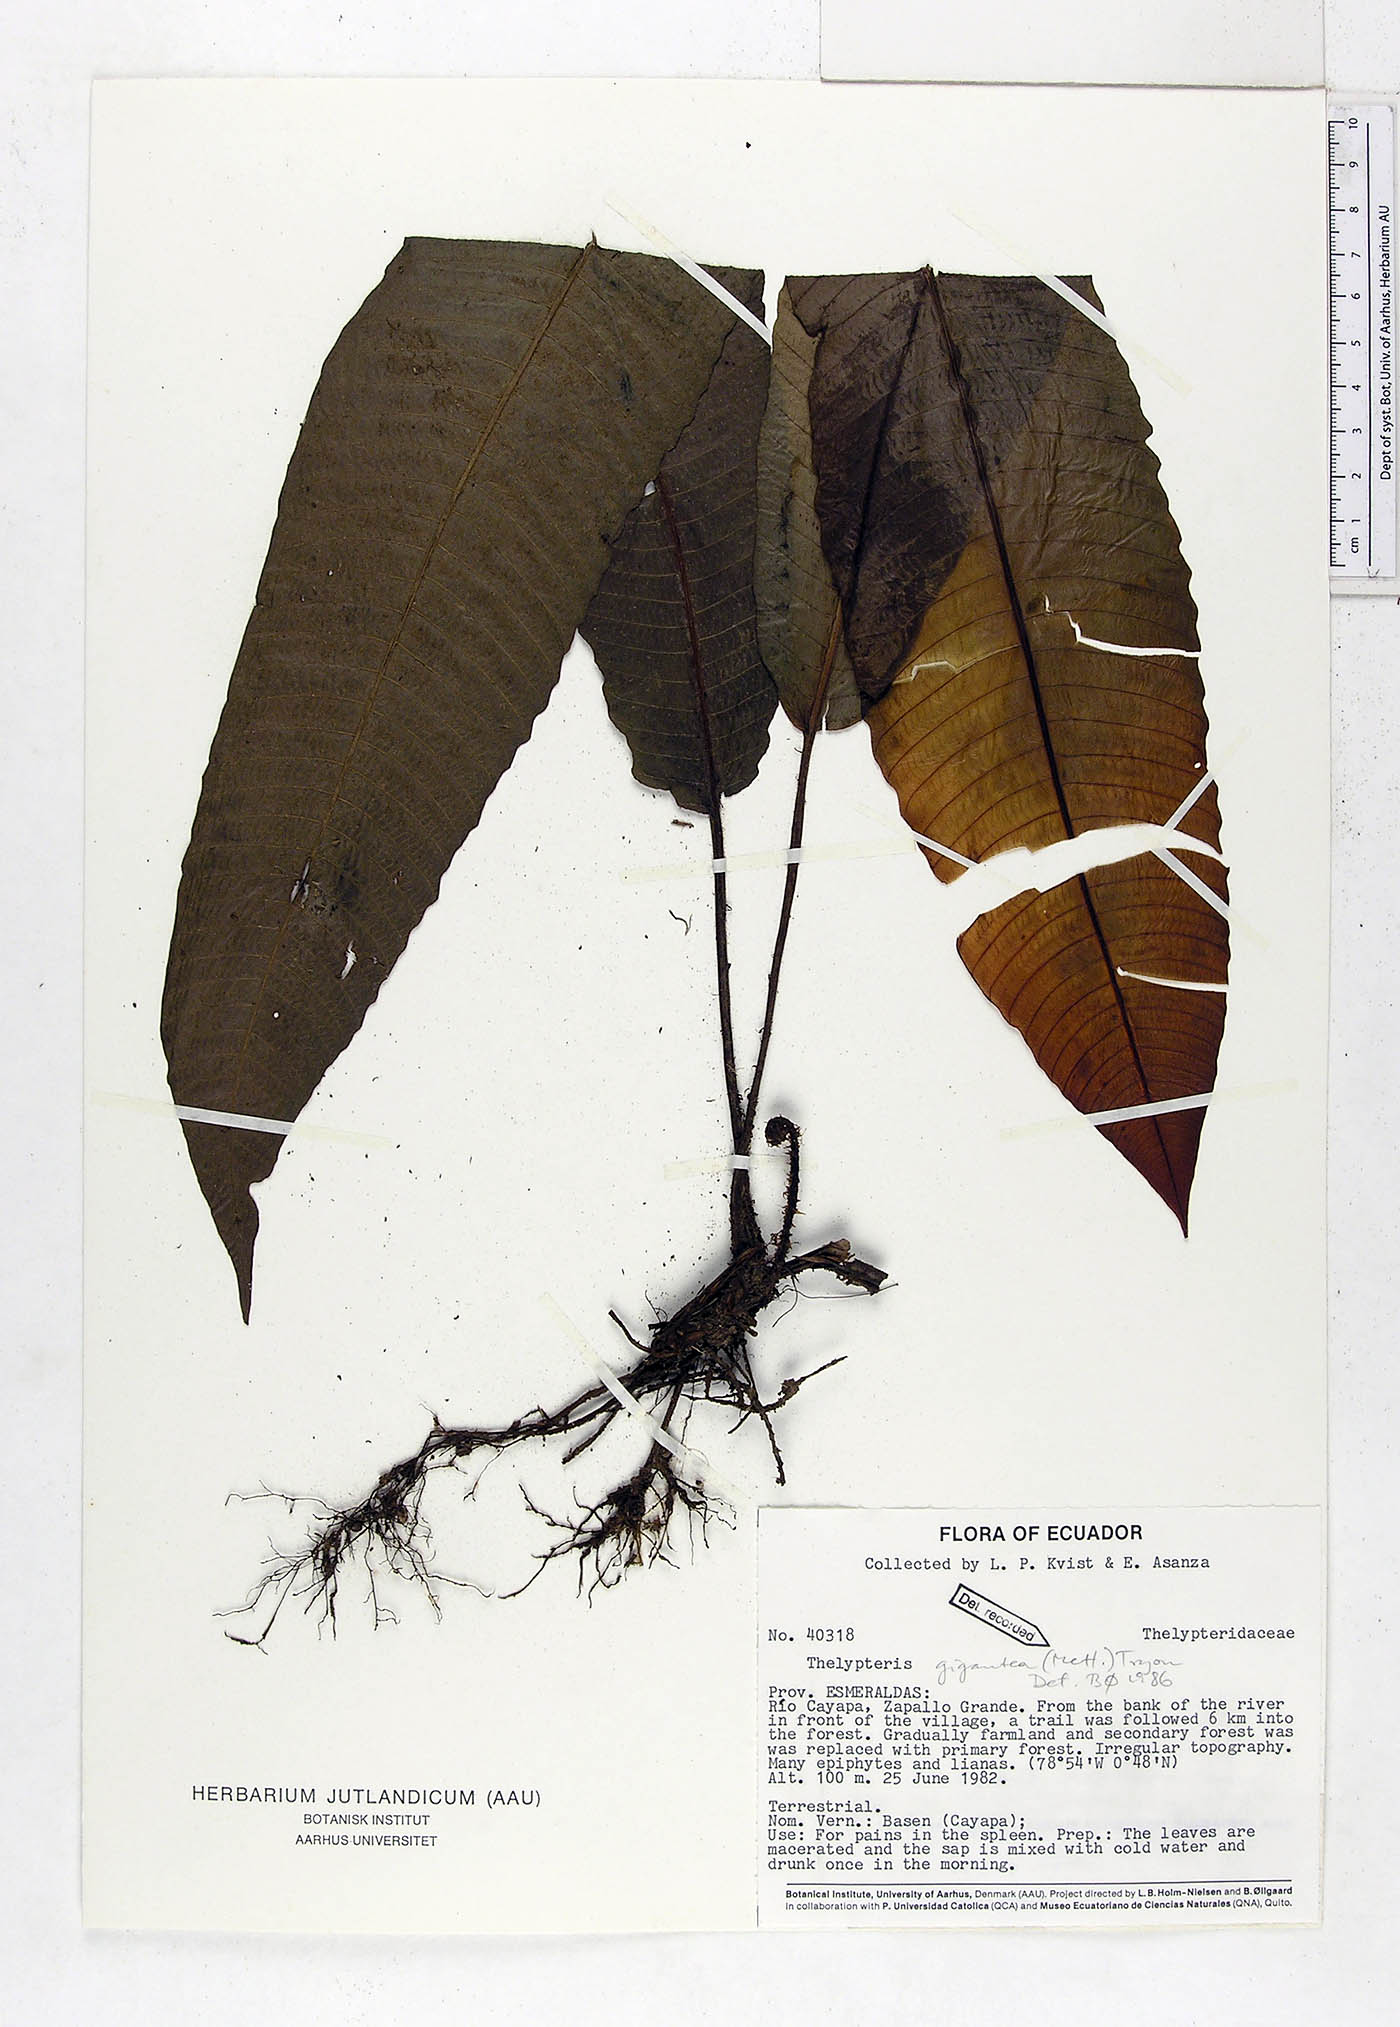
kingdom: Plantae
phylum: Tracheophyta
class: Polypodiopsida
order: Polypodiales
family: Thelypteridaceae
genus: Meniscium
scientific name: Meniscium giganteum
